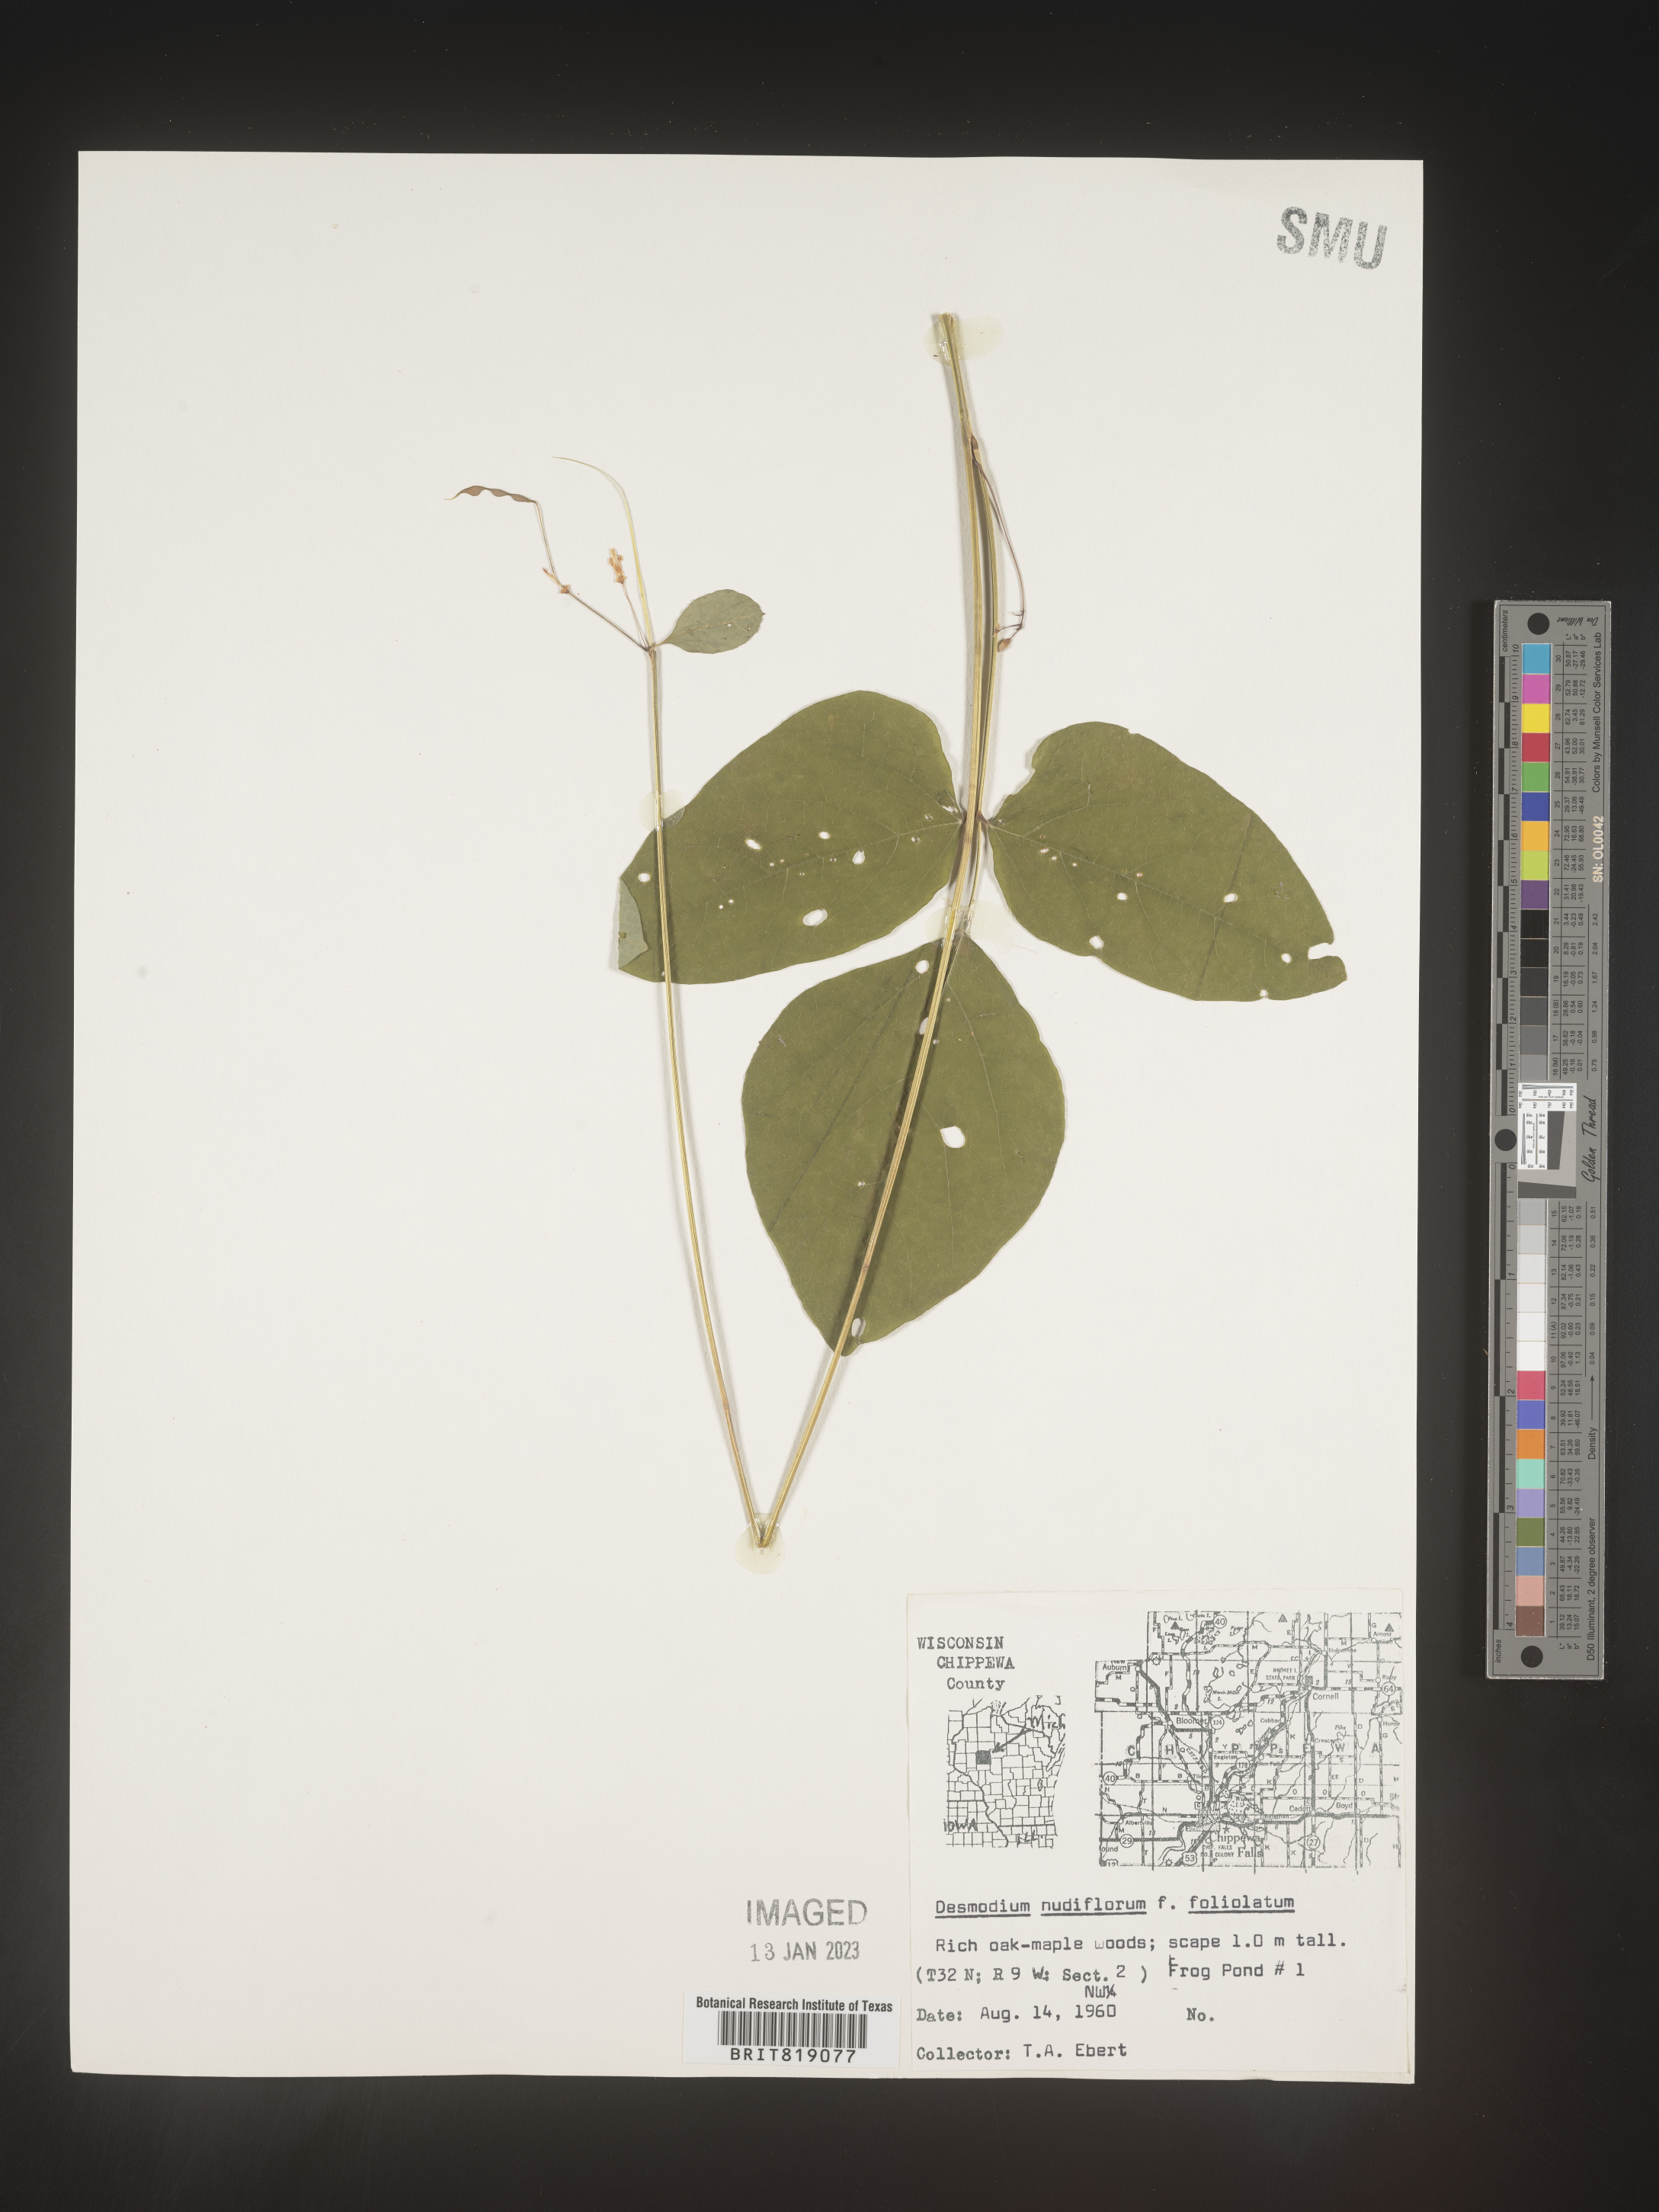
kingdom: Plantae
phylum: Tracheophyta
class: Magnoliopsida
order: Fabales
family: Fabaceae
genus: Hylodesmum
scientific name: Hylodesmum nudiflorum
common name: Bare-stemmed tick-trefoil
